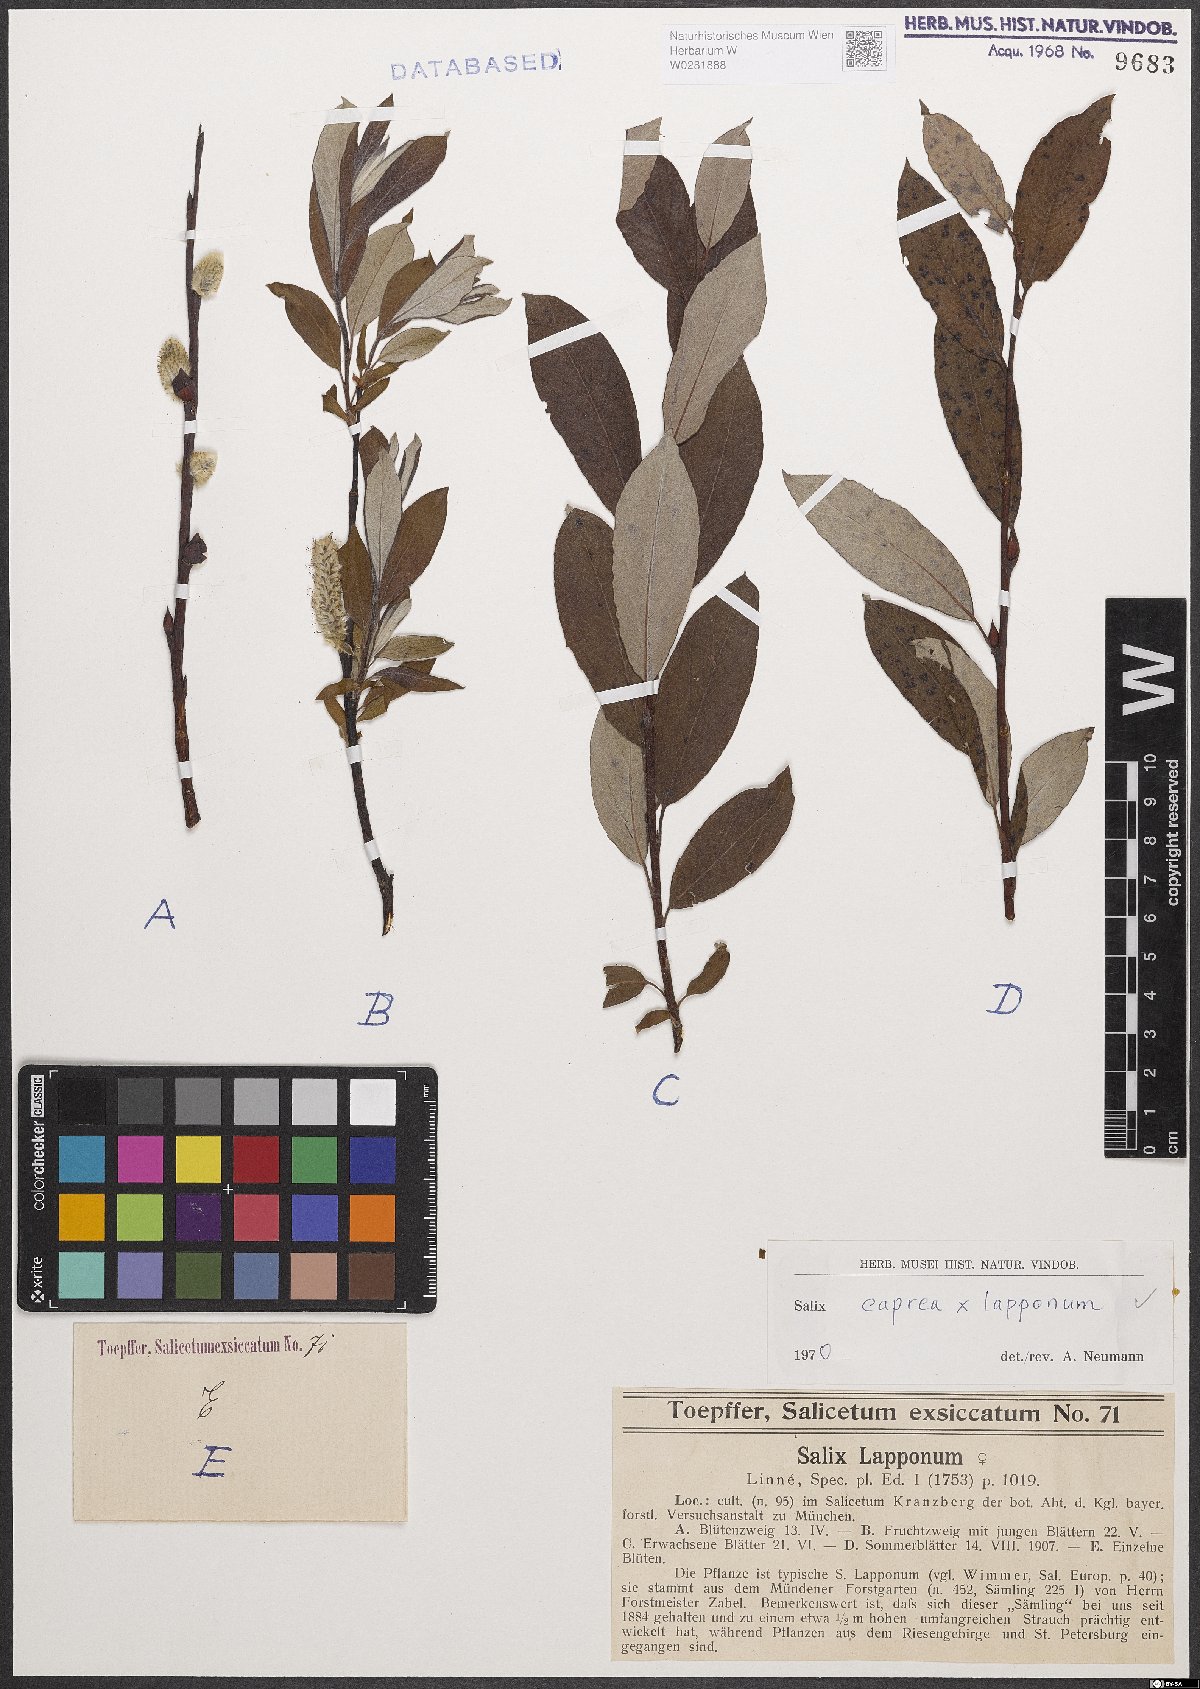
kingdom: Plantae
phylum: Tracheophyta
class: Magnoliopsida
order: Malpighiales
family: Salicaceae
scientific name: Salicaceae
